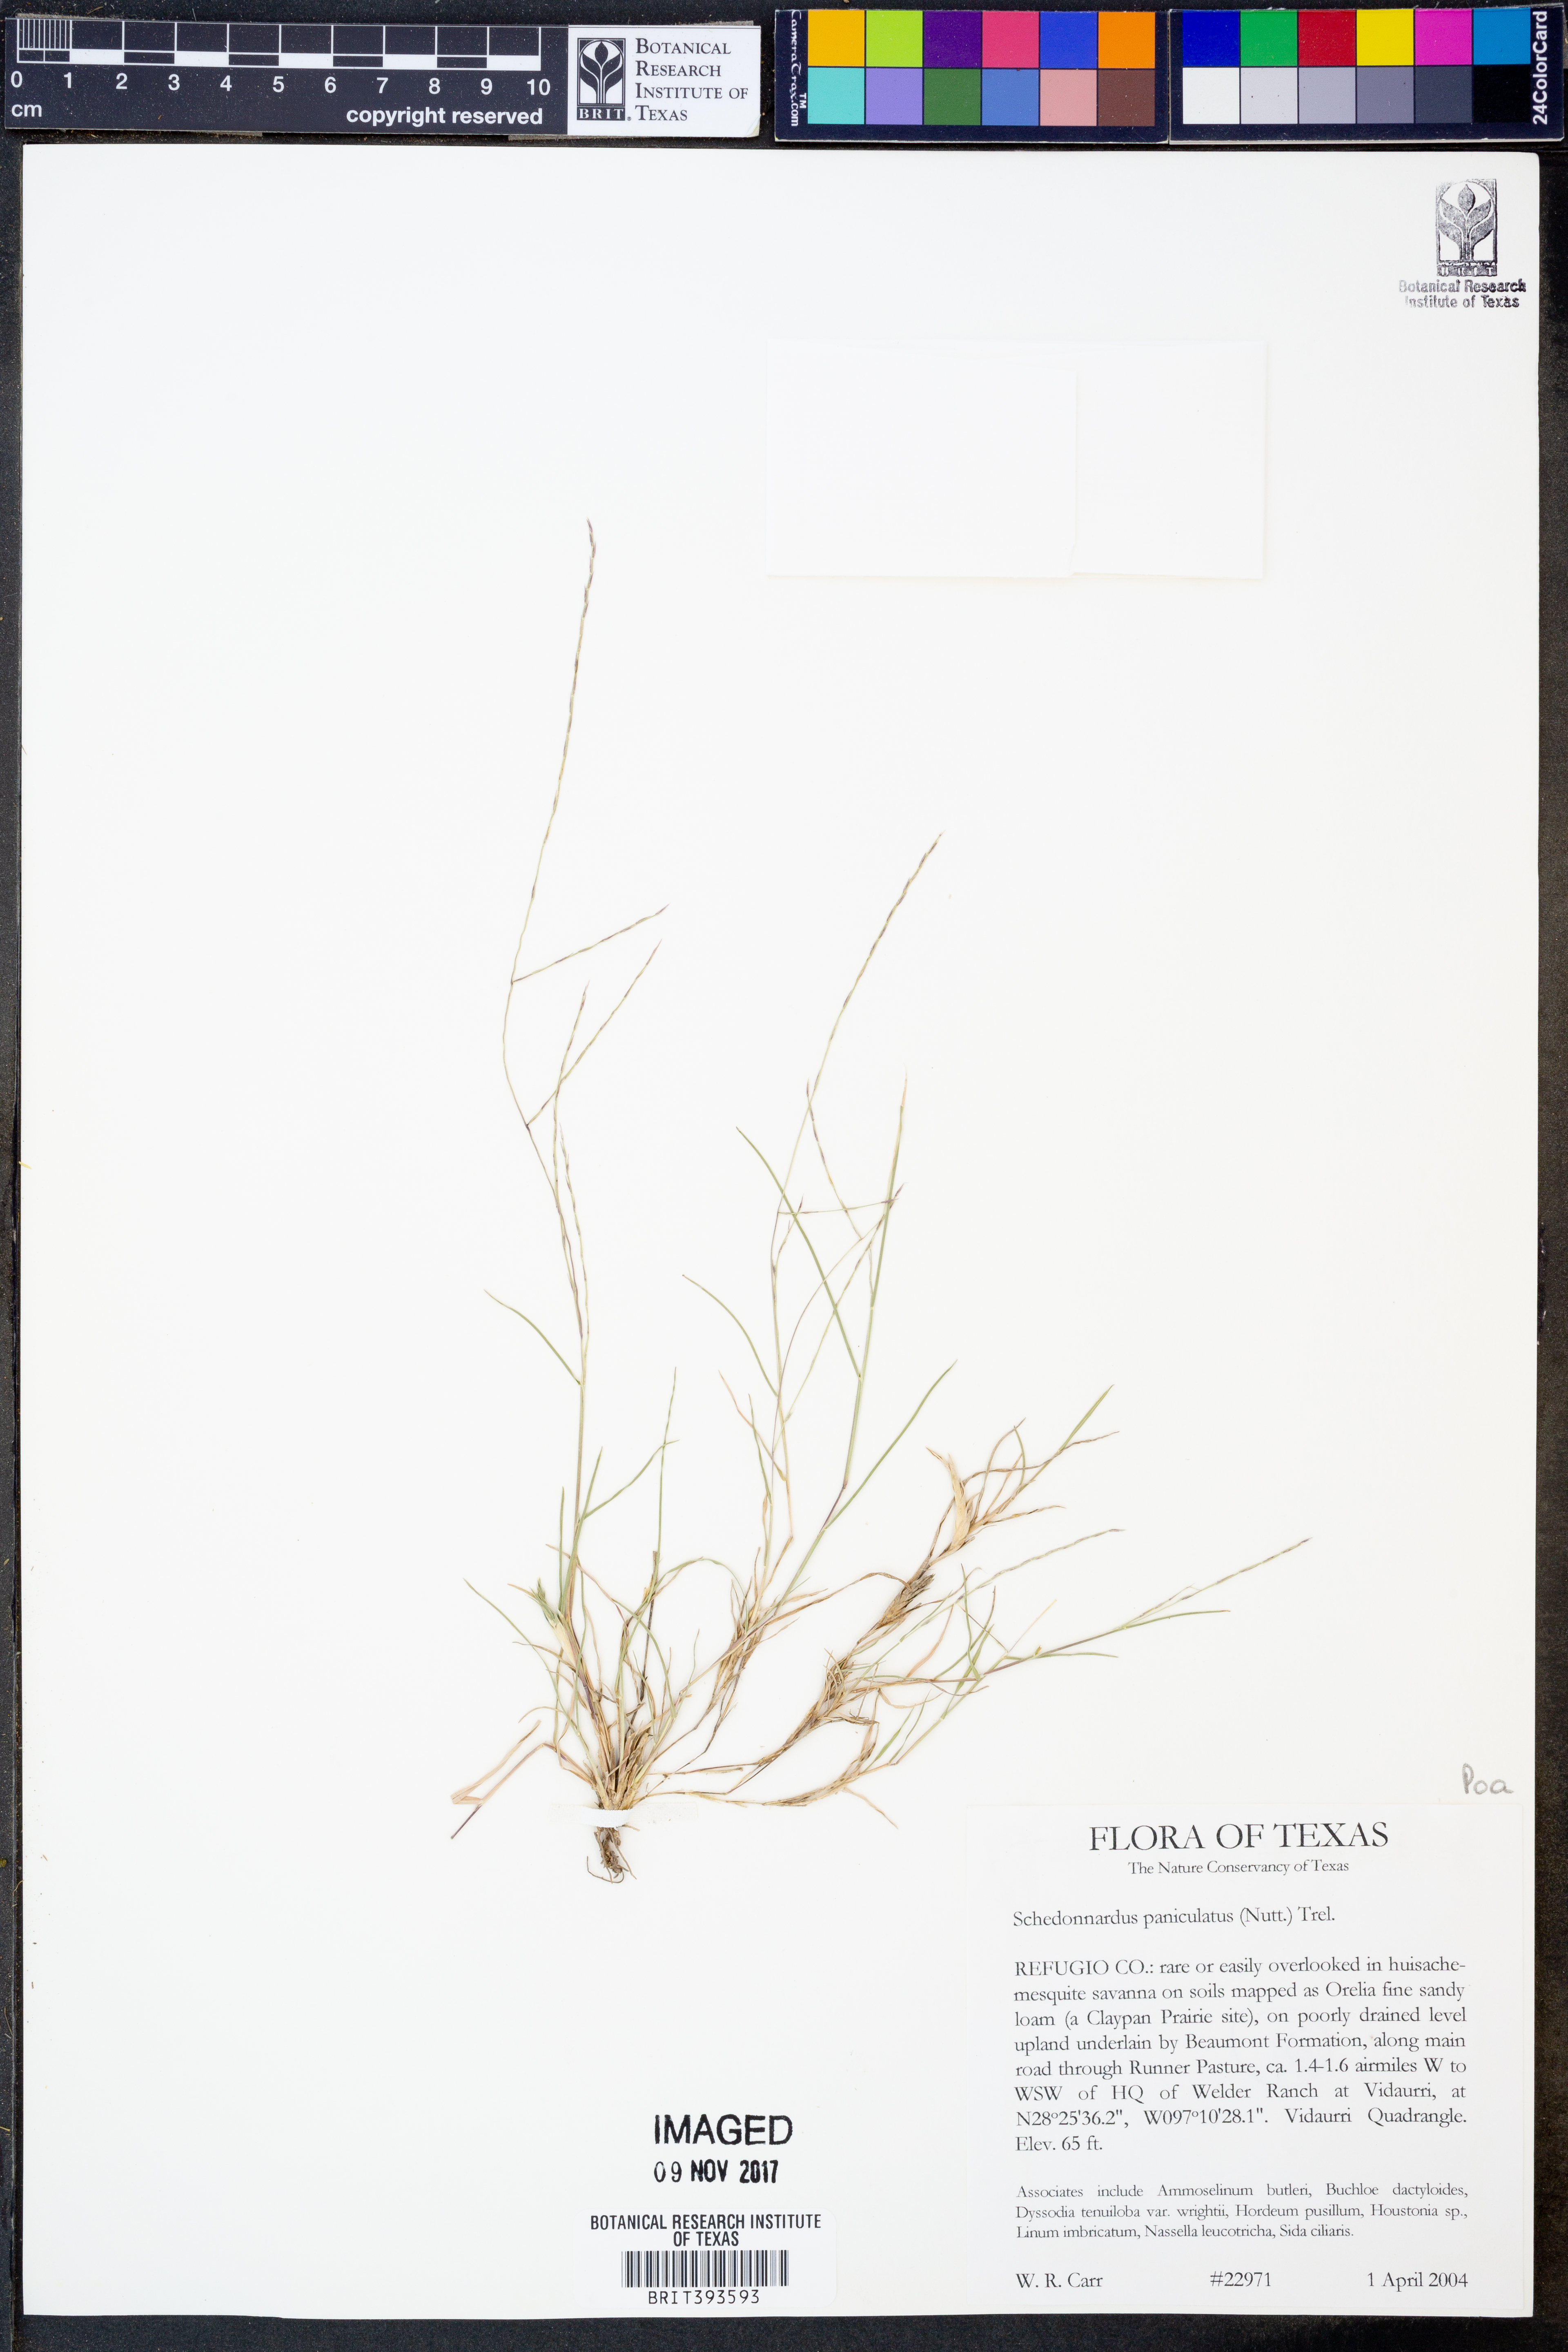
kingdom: Plantae
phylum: Tracheophyta
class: Liliopsida
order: Poales
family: Poaceae
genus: Muhlenbergia
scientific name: Muhlenbergia paniculata
